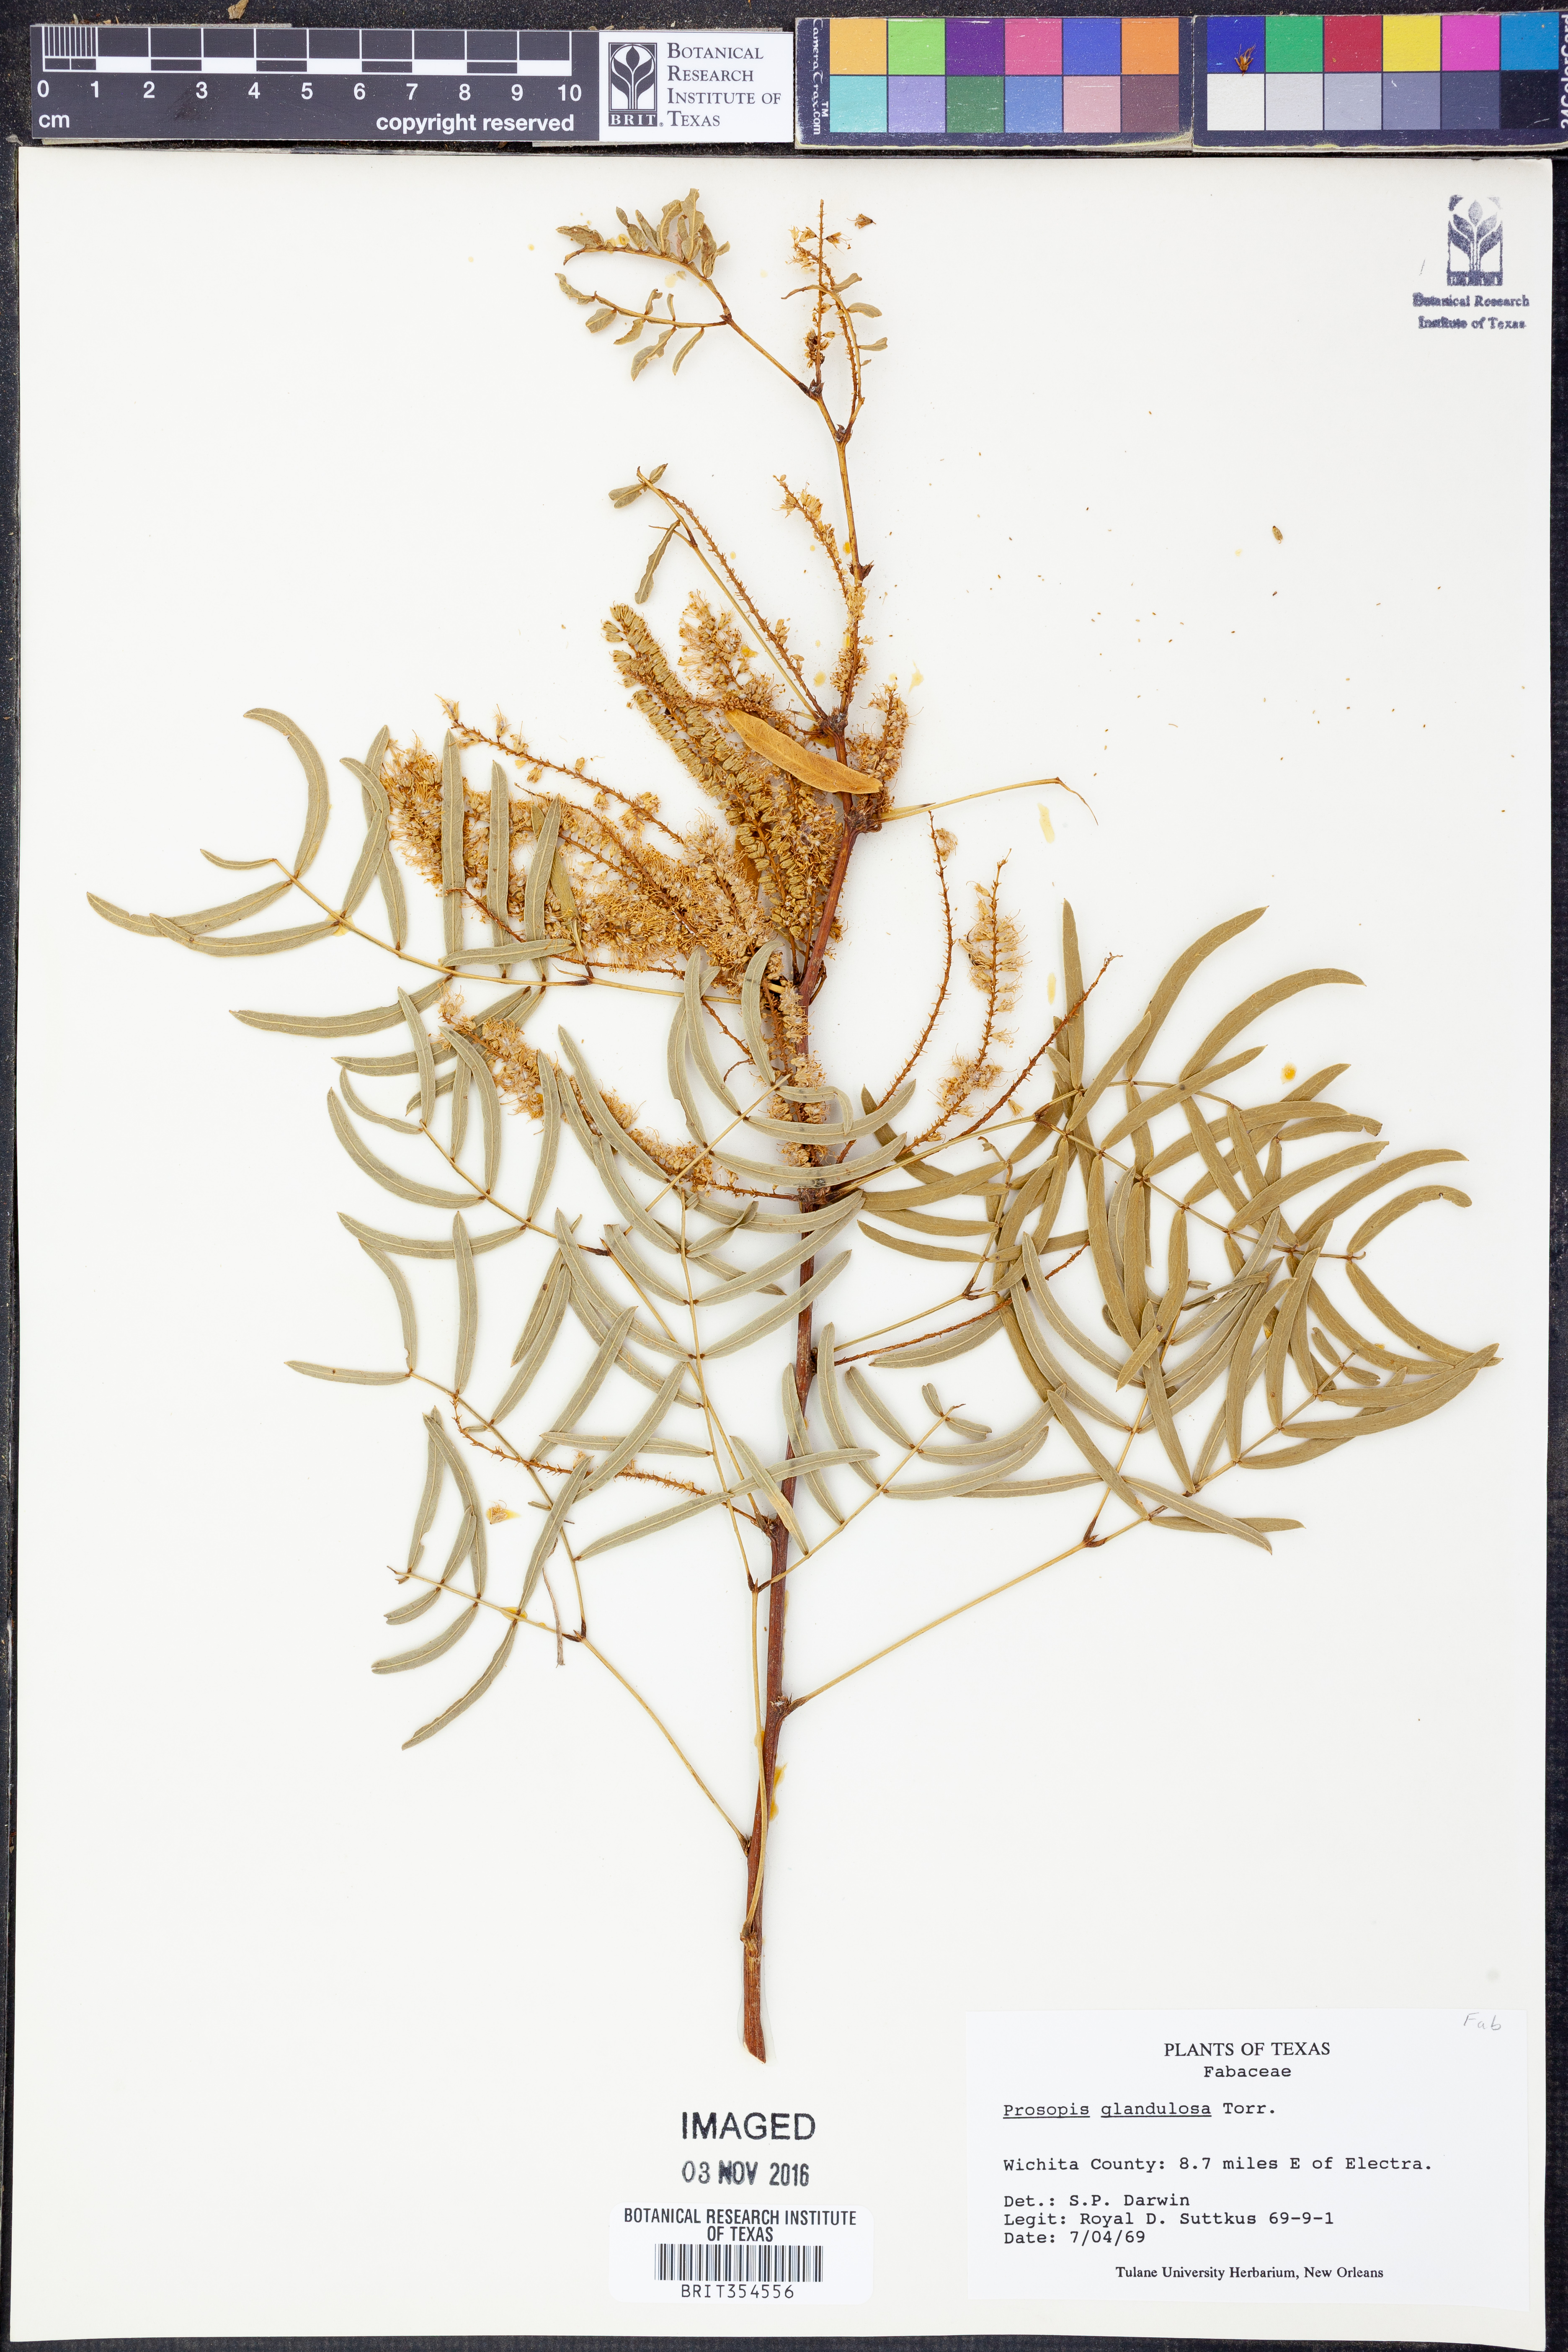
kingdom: Plantae
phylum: Tracheophyta
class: Magnoliopsida
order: Fabales
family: Fabaceae
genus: Prosopis
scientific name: Prosopis glandulosa
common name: Honey mesquite
